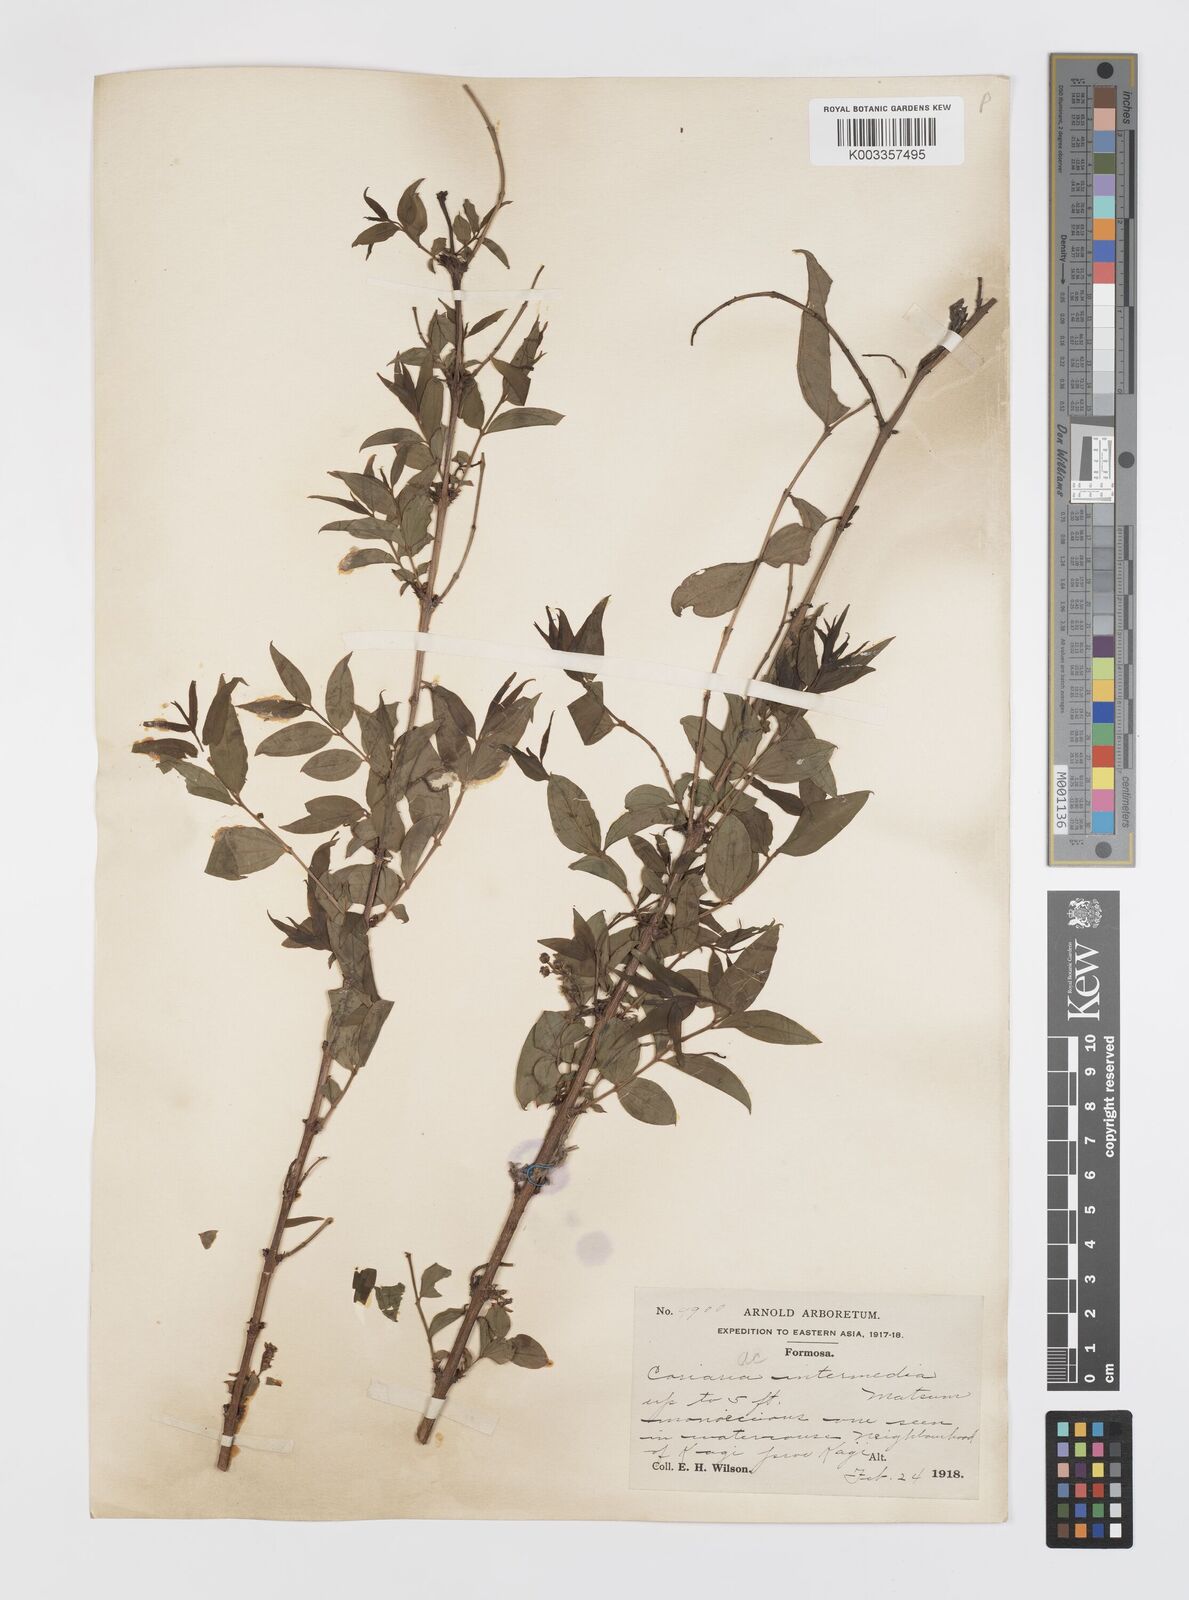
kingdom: Plantae
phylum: Tracheophyta
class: Magnoliopsida
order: Cucurbitales
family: Coriariaceae
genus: Coriaria
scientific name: Coriaria japonica
